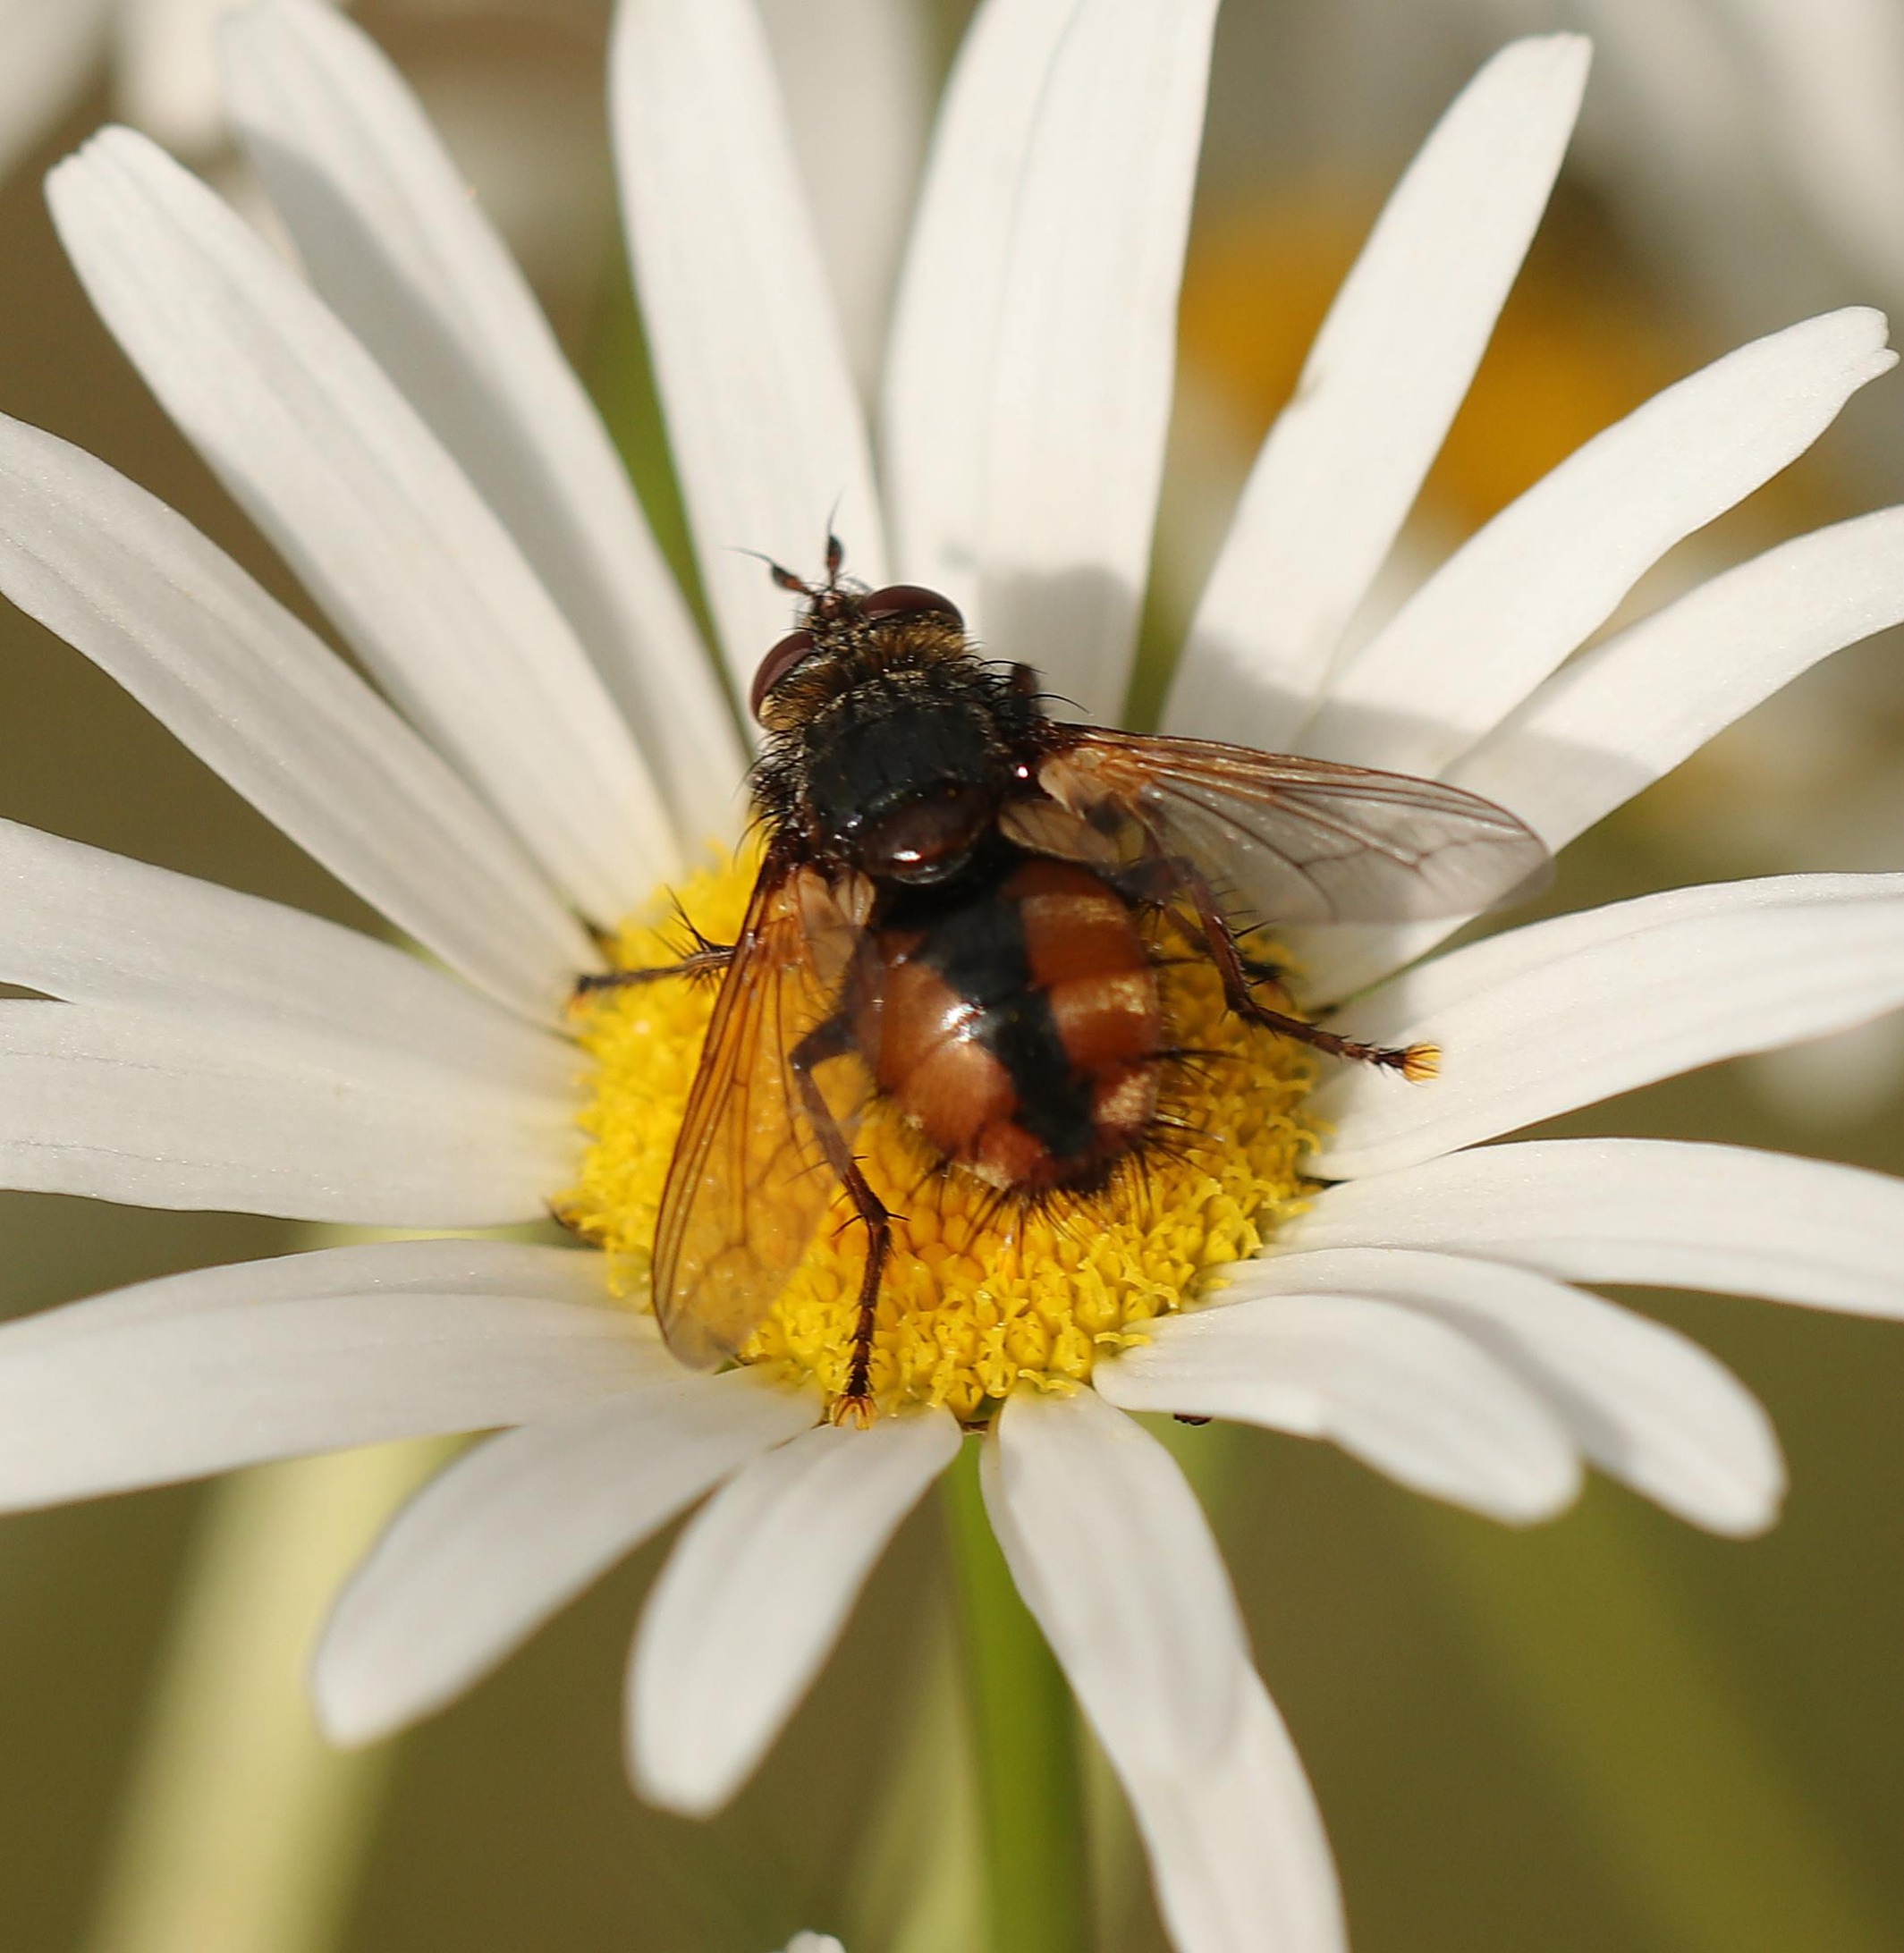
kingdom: Animalia
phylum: Arthropoda
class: Insecta
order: Diptera
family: Tachinidae
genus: Tachina
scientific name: Tachina fera
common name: Mellemfluen oskar
